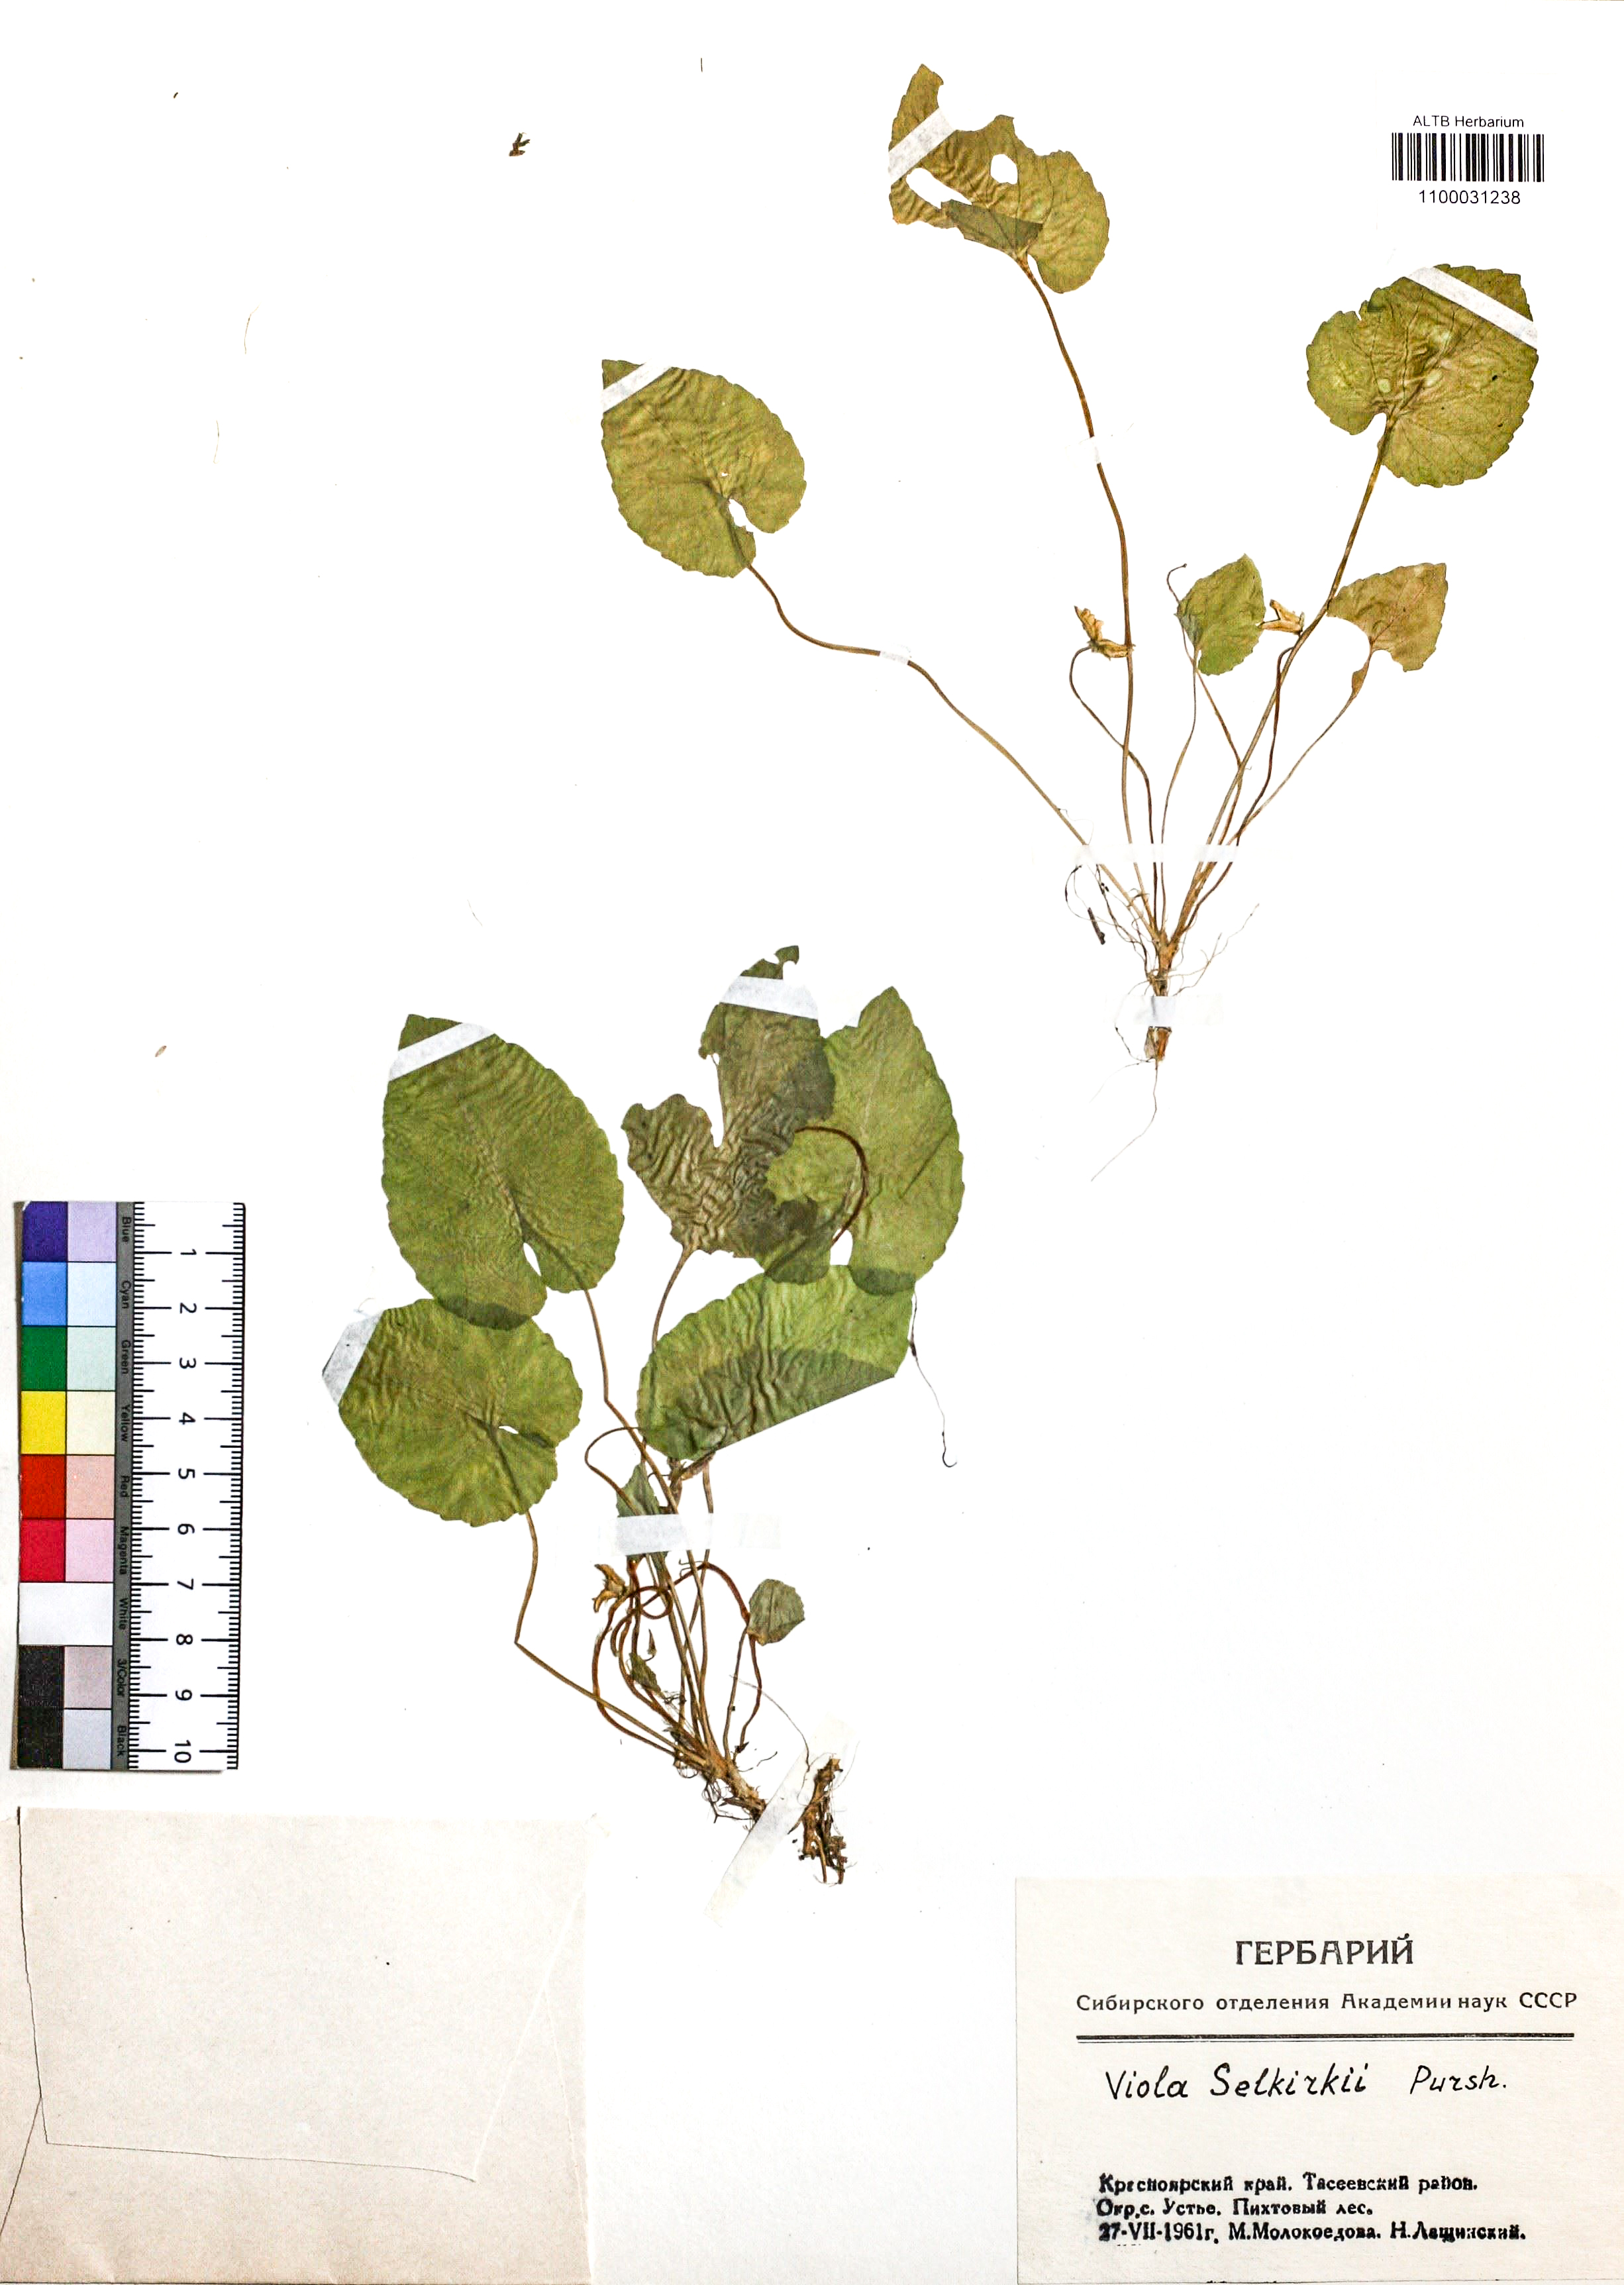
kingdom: Plantae
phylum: Tracheophyta
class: Magnoliopsida
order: Malpighiales
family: Violaceae
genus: Viola
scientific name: Viola selkirkii
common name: Selkirk's violet
